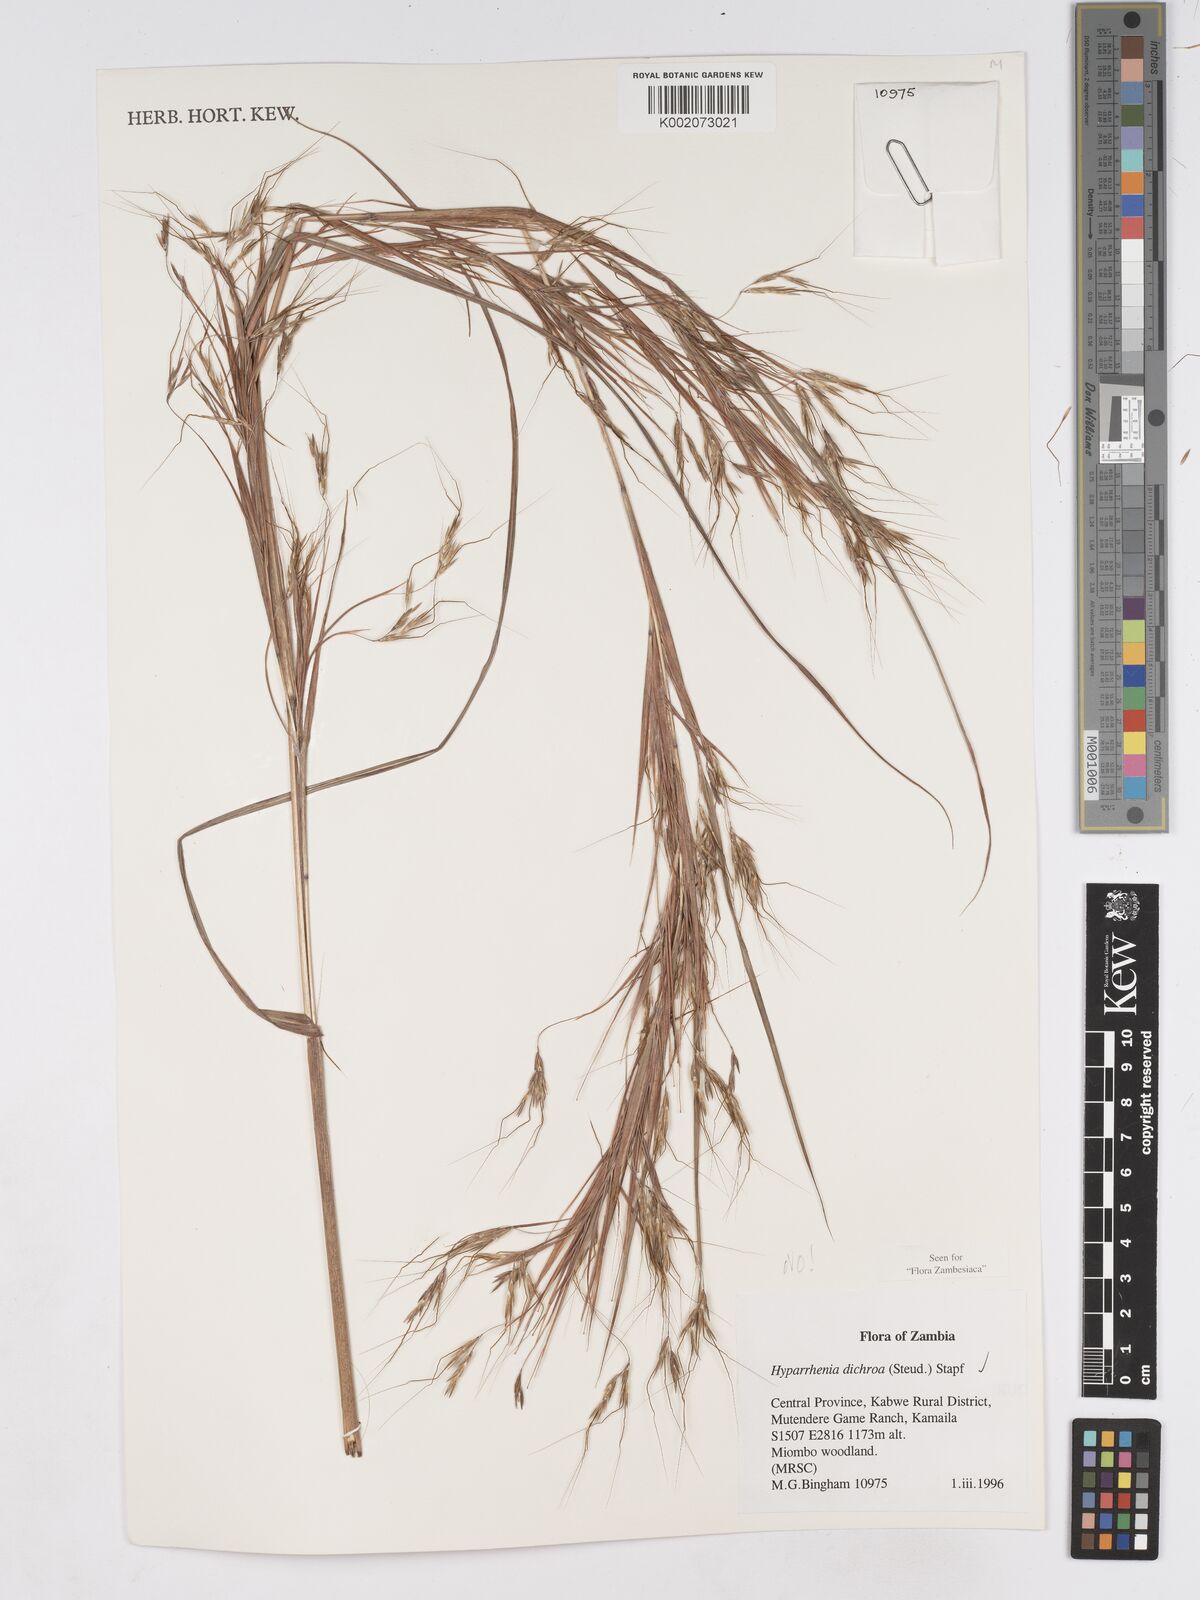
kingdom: Plantae
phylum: Tracheophyta
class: Liliopsida
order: Poales
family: Poaceae
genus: Hyparrhenia
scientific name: Hyparrhenia dichroa
